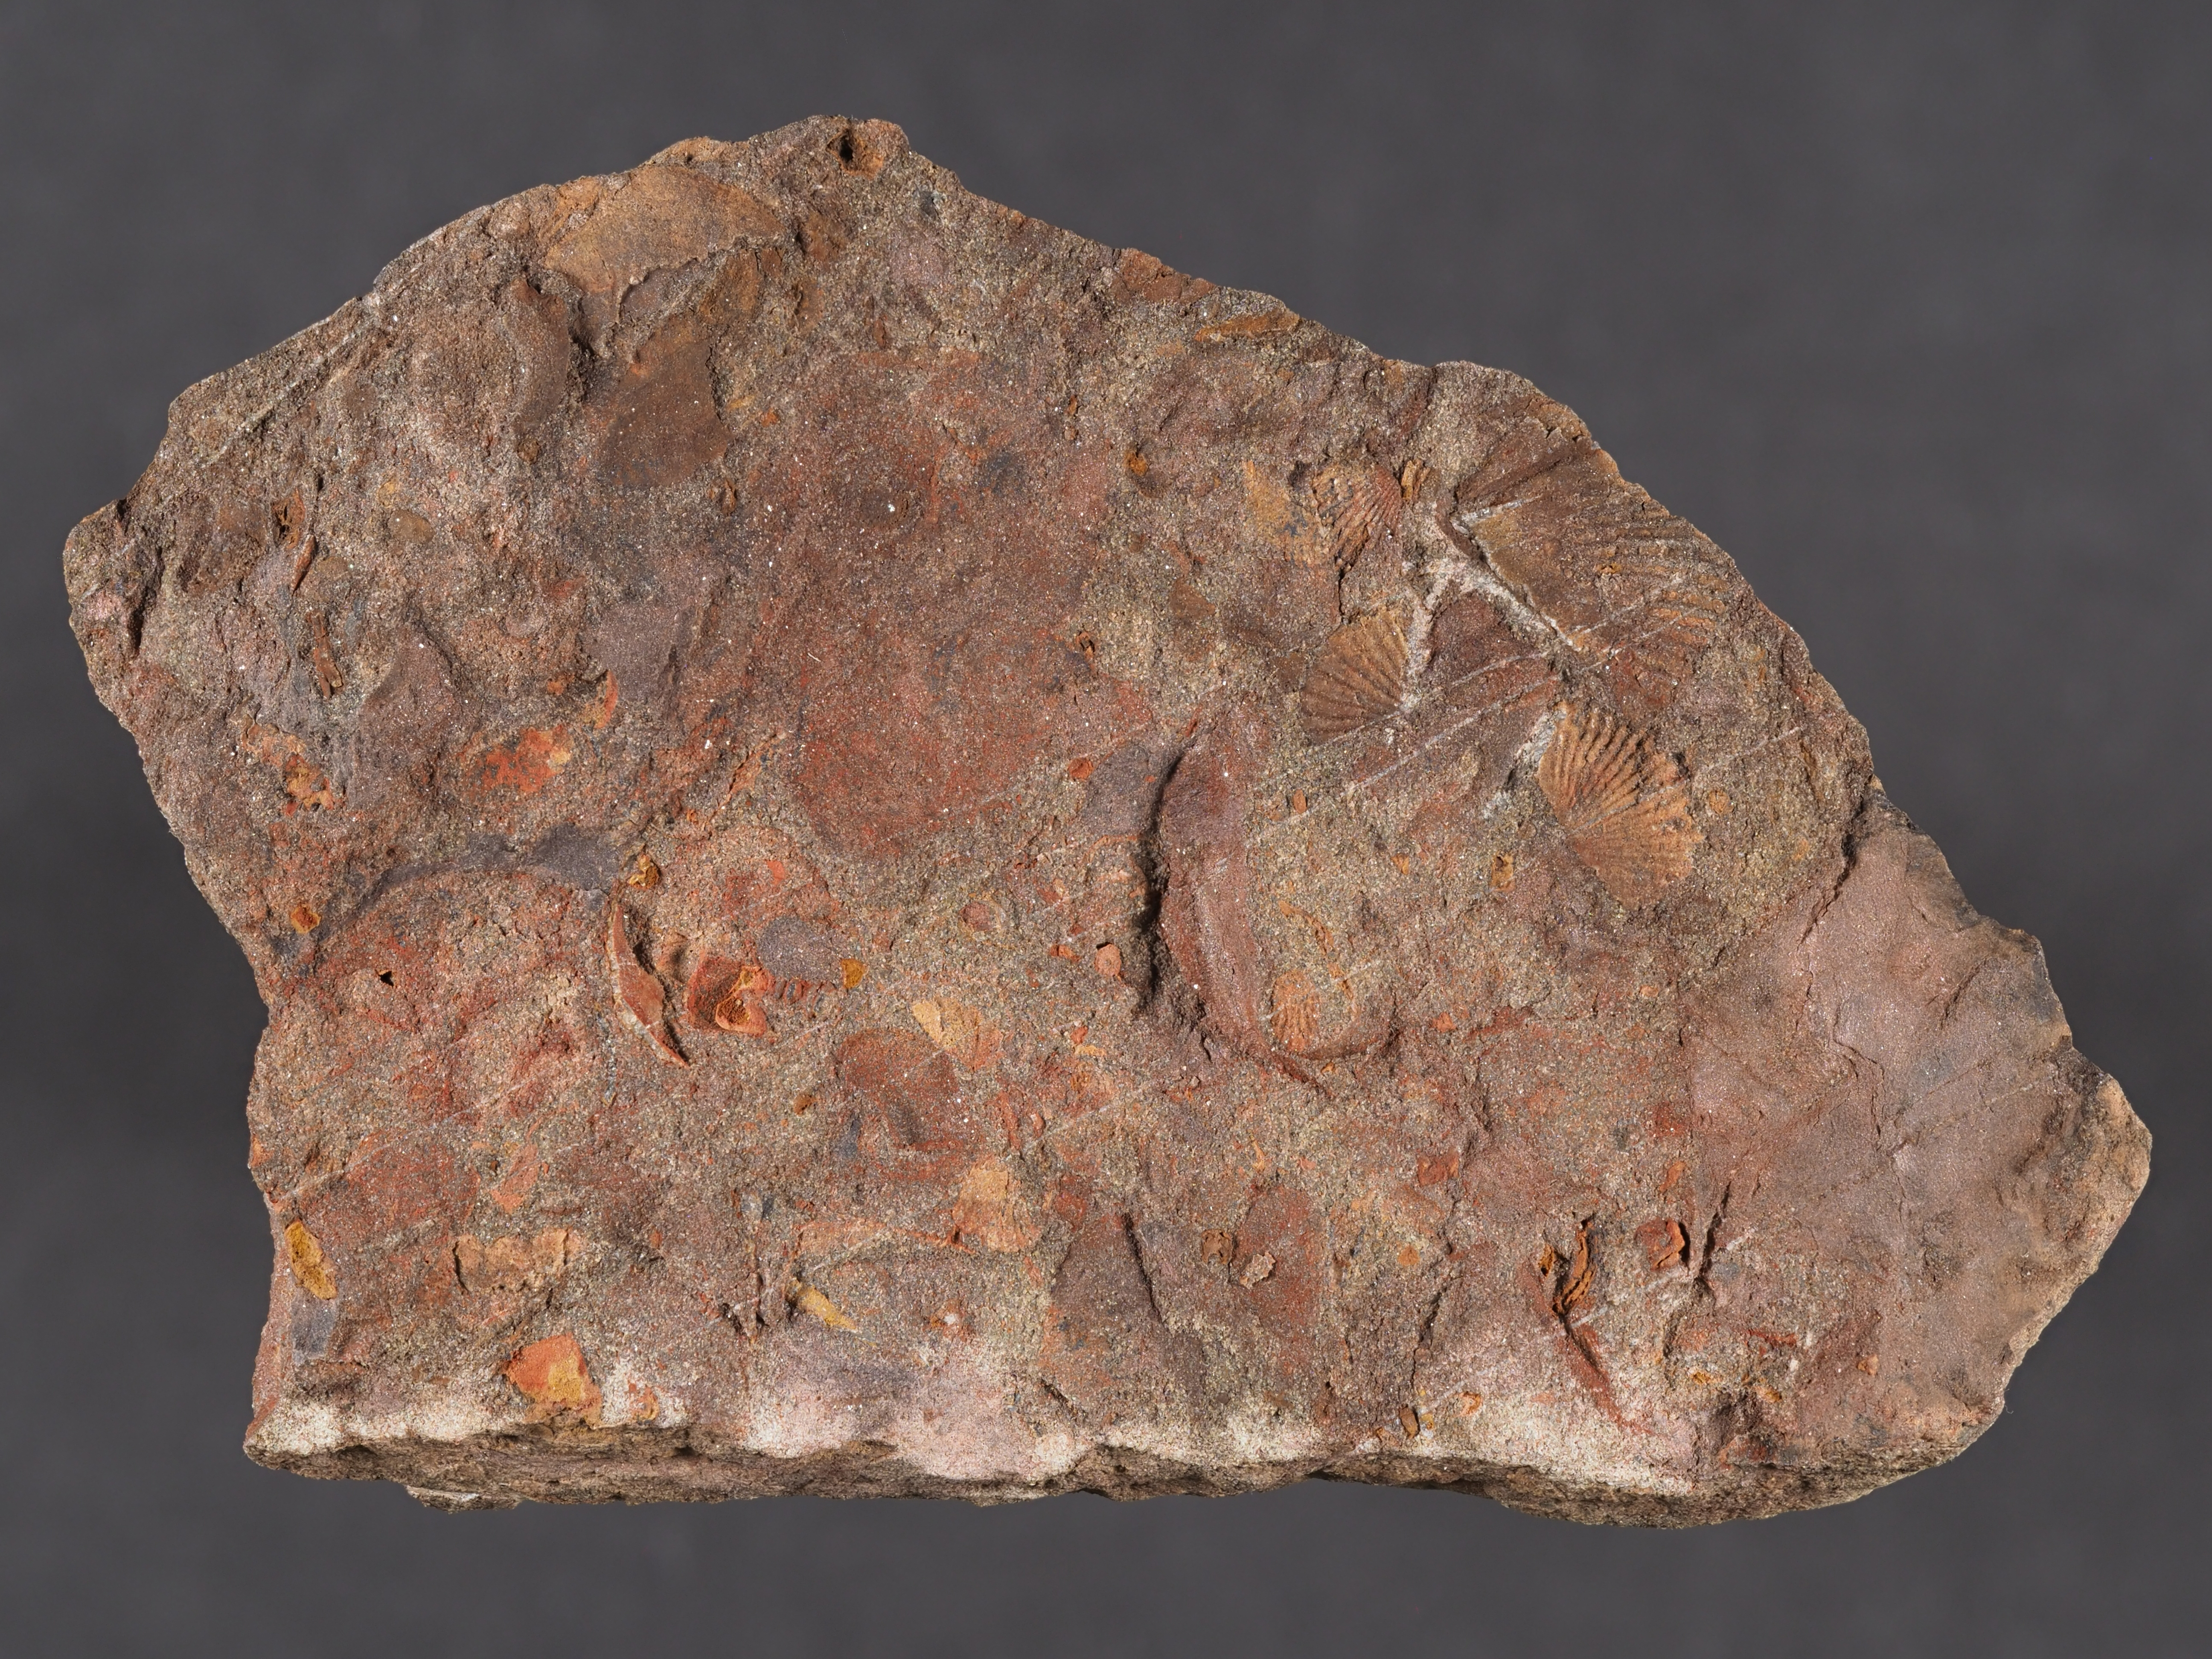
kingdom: Animalia
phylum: Mollusca
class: Gastropoda
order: Pleurotomariida
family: Eotomariidae
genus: Bembexia
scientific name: Bembexia
